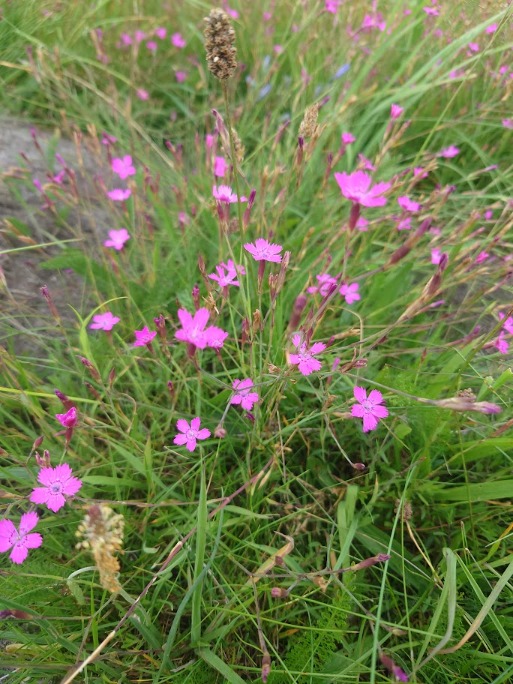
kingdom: Plantae
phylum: Tracheophyta
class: Magnoliopsida
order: Caryophyllales
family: Caryophyllaceae
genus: Dianthus
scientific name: Dianthus deltoides
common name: Bakke-nellike
